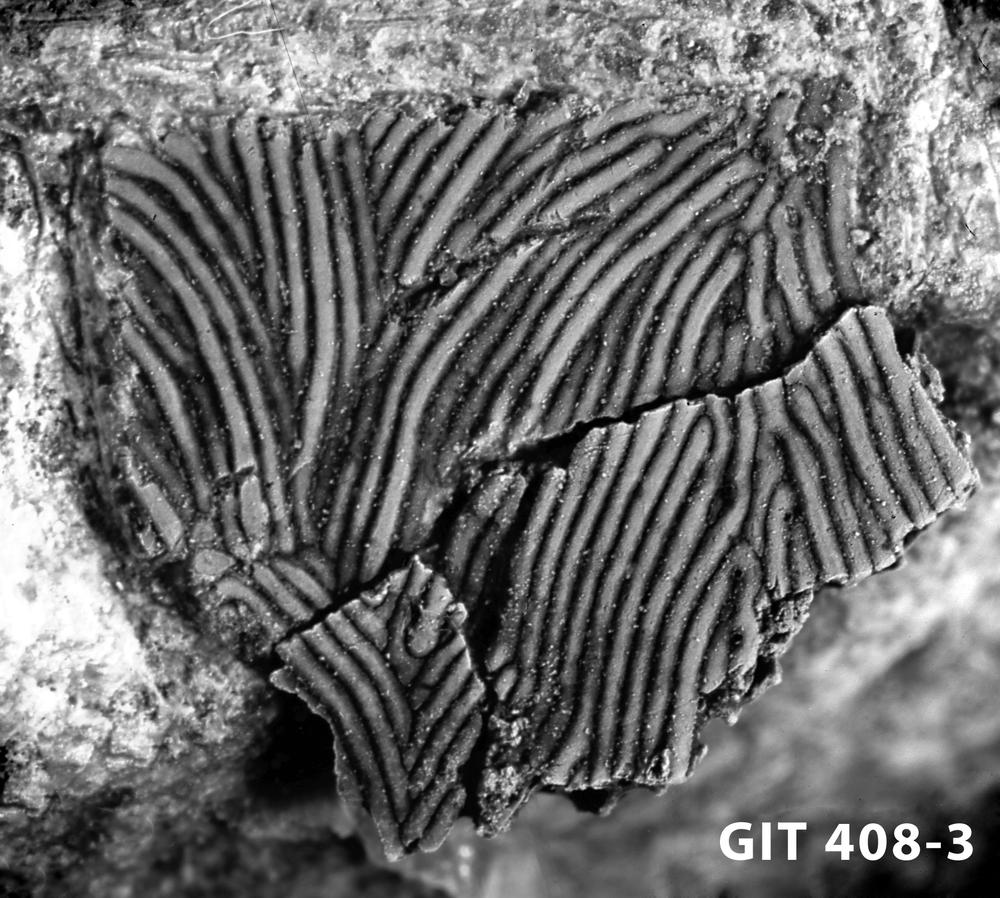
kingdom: Animalia
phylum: Chordata
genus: Archegonaspis
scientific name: Archegonaspis
